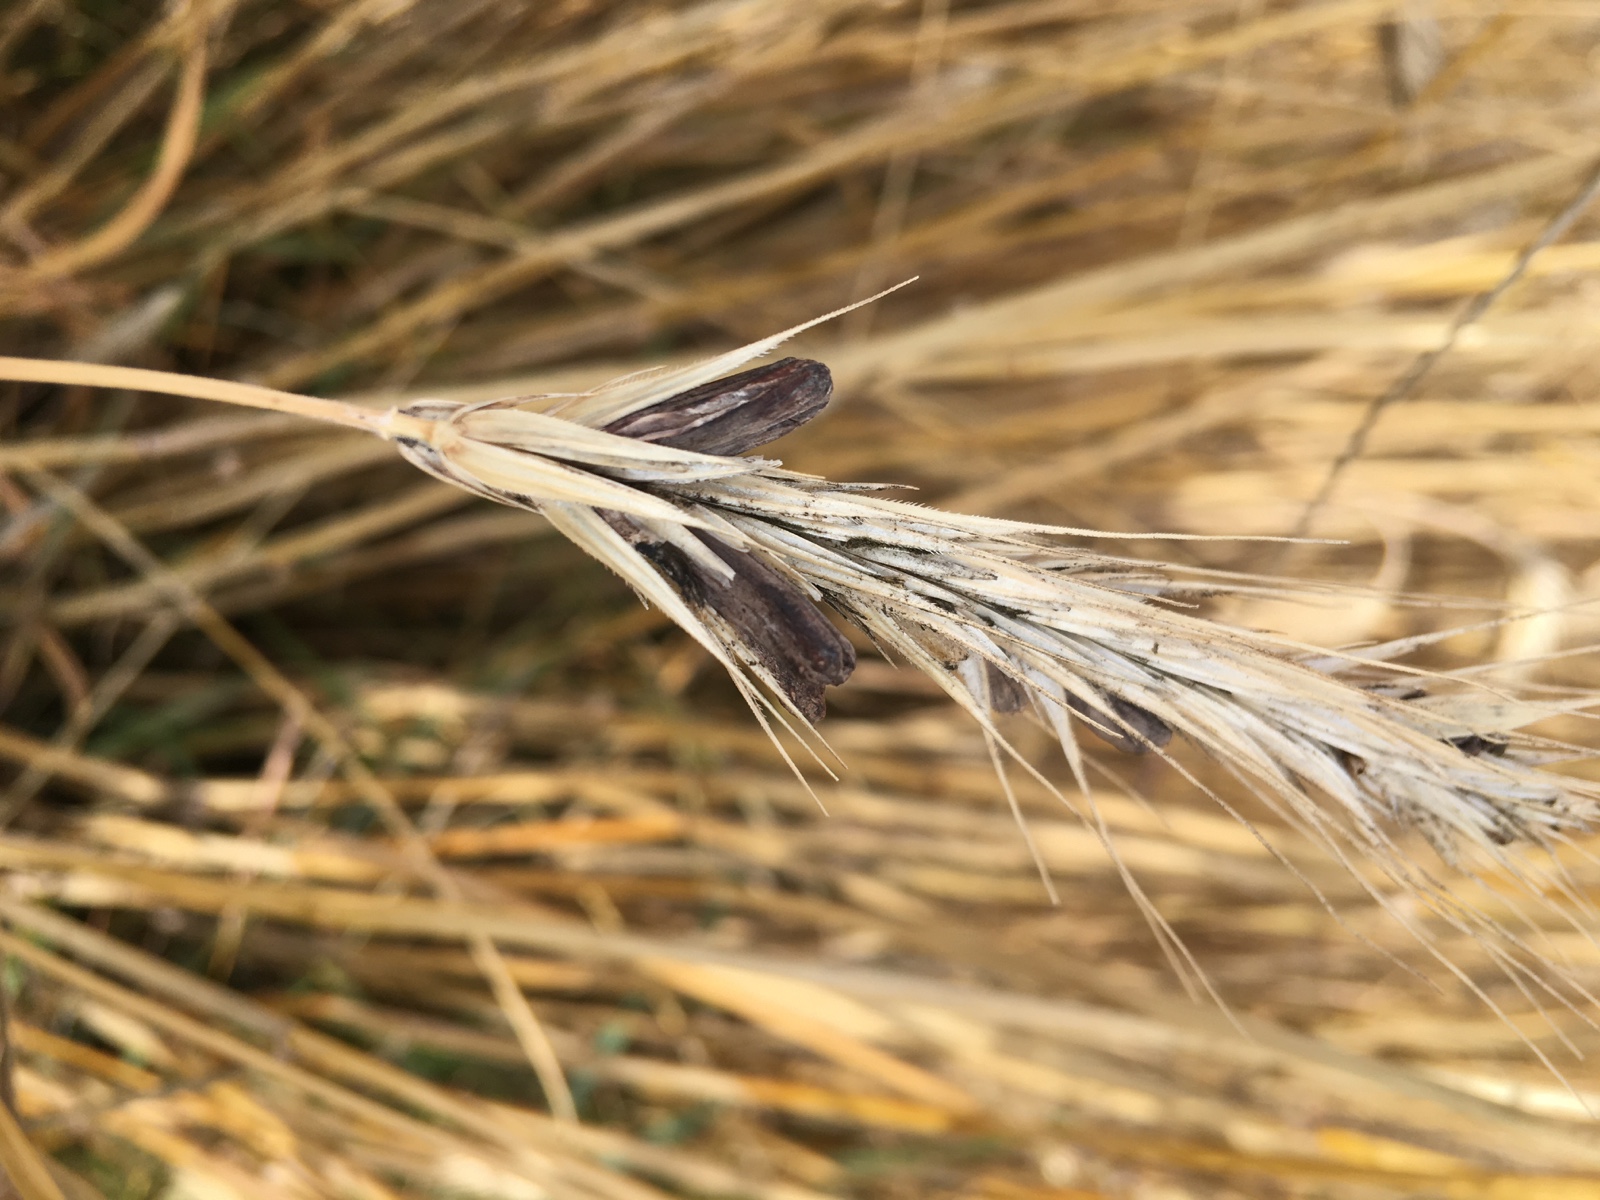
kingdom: Fungi
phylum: Ascomycota
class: Sordariomycetes
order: Hypocreales
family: Clavicipitaceae
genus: Claviceps
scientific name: Claviceps purpurea
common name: almindelig meldrøjer
